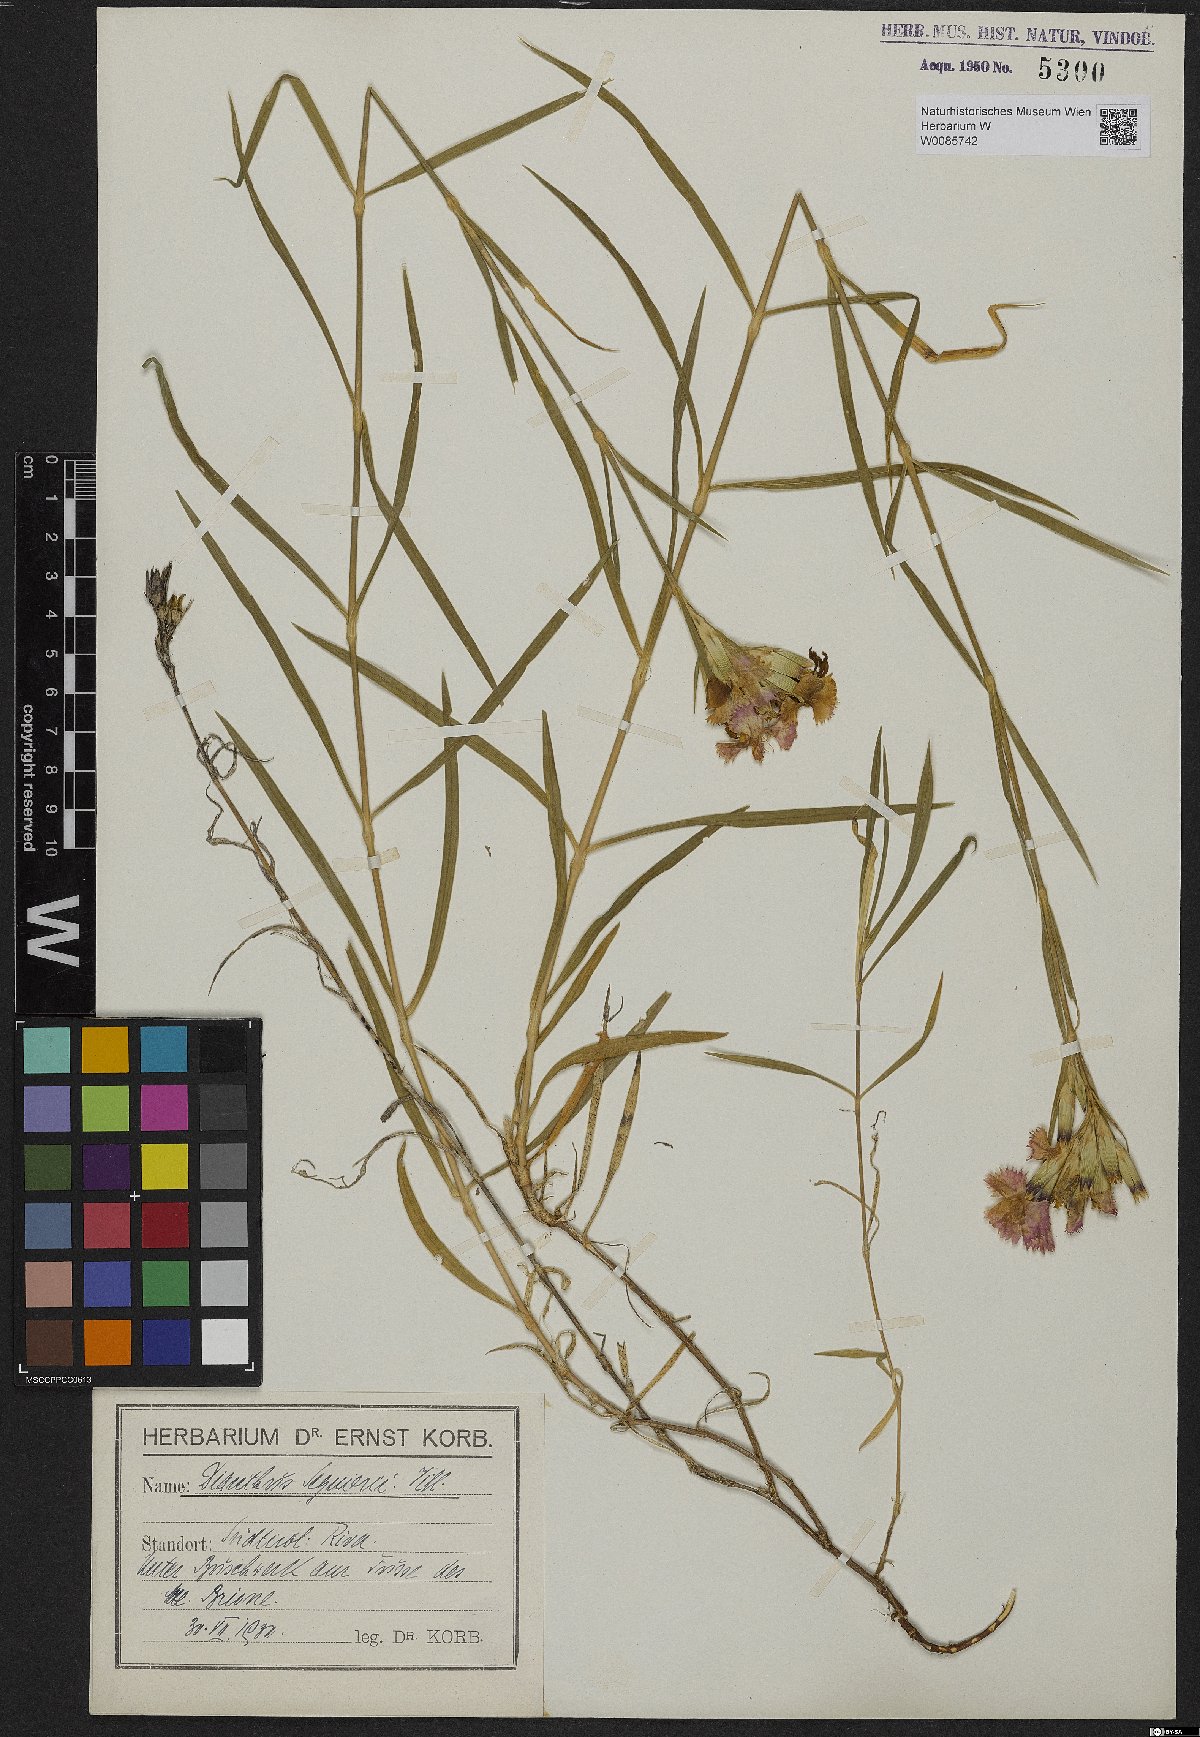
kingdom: Plantae
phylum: Tracheophyta
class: Magnoliopsida
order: Caryophyllales
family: Caryophyllaceae
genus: Dianthus
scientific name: Dianthus seguieri
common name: Ragged pink
